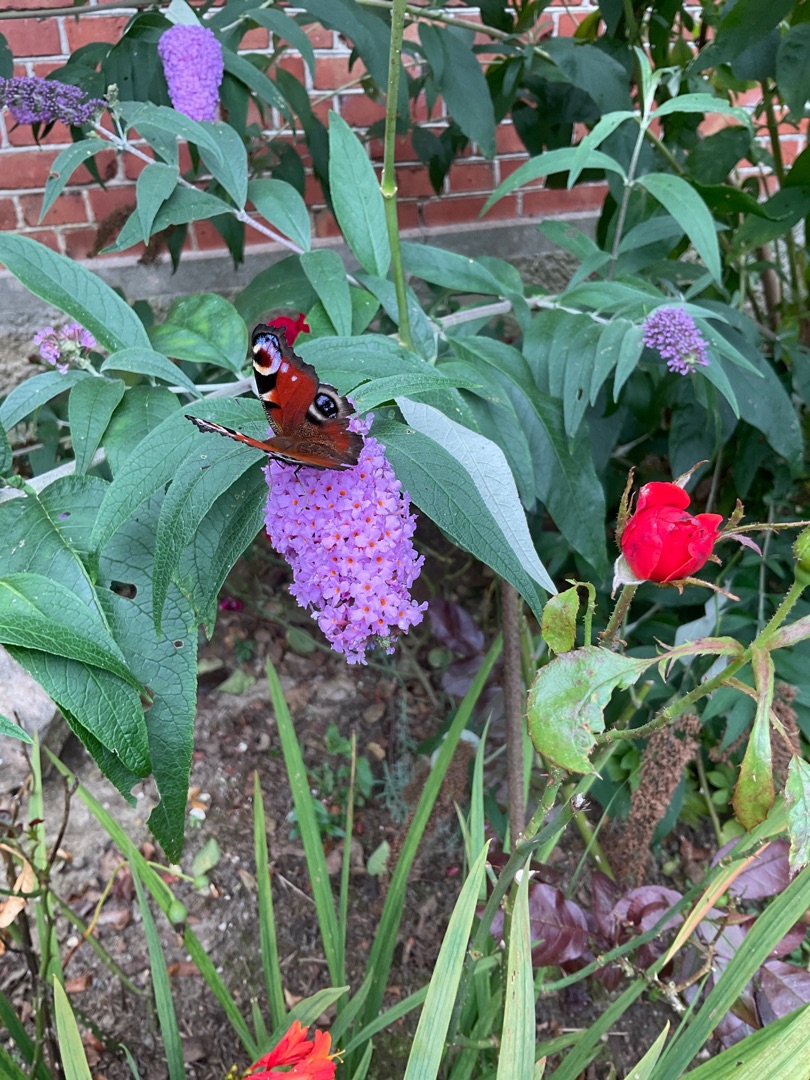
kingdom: Animalia
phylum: Arthropoda
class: Insecta
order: Lepidoptera
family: Nymphalidae
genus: Aglais
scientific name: Aglais io
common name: Dagpåfugleøje
